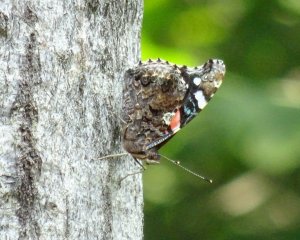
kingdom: Animalia
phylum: Arthropoda
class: Insecta
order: Lepidoptera
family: Nymphalidae
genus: Vanessa
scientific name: Vanessa atalanta
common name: Red Admiral
